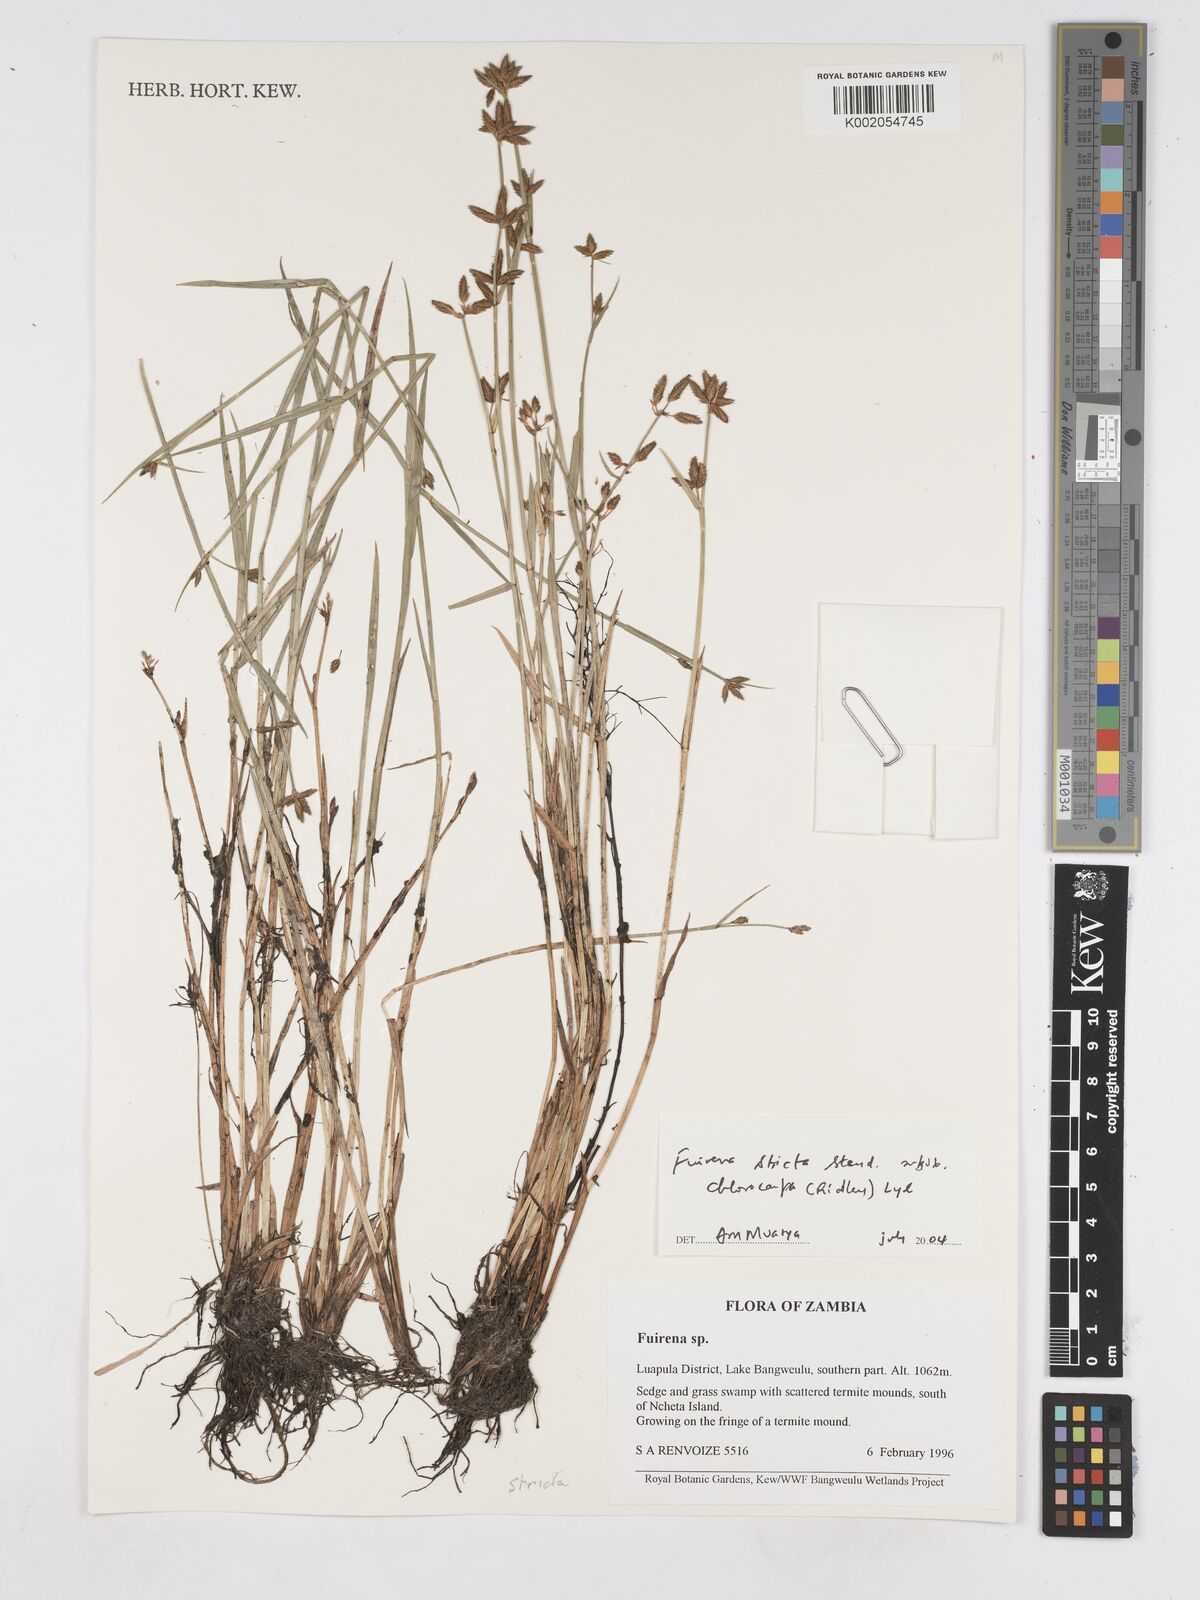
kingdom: Plantae
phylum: Tracheophyta
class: Liliopsida
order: Poales
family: Cyperaceae
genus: Fuirena
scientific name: Fuirena stricta
